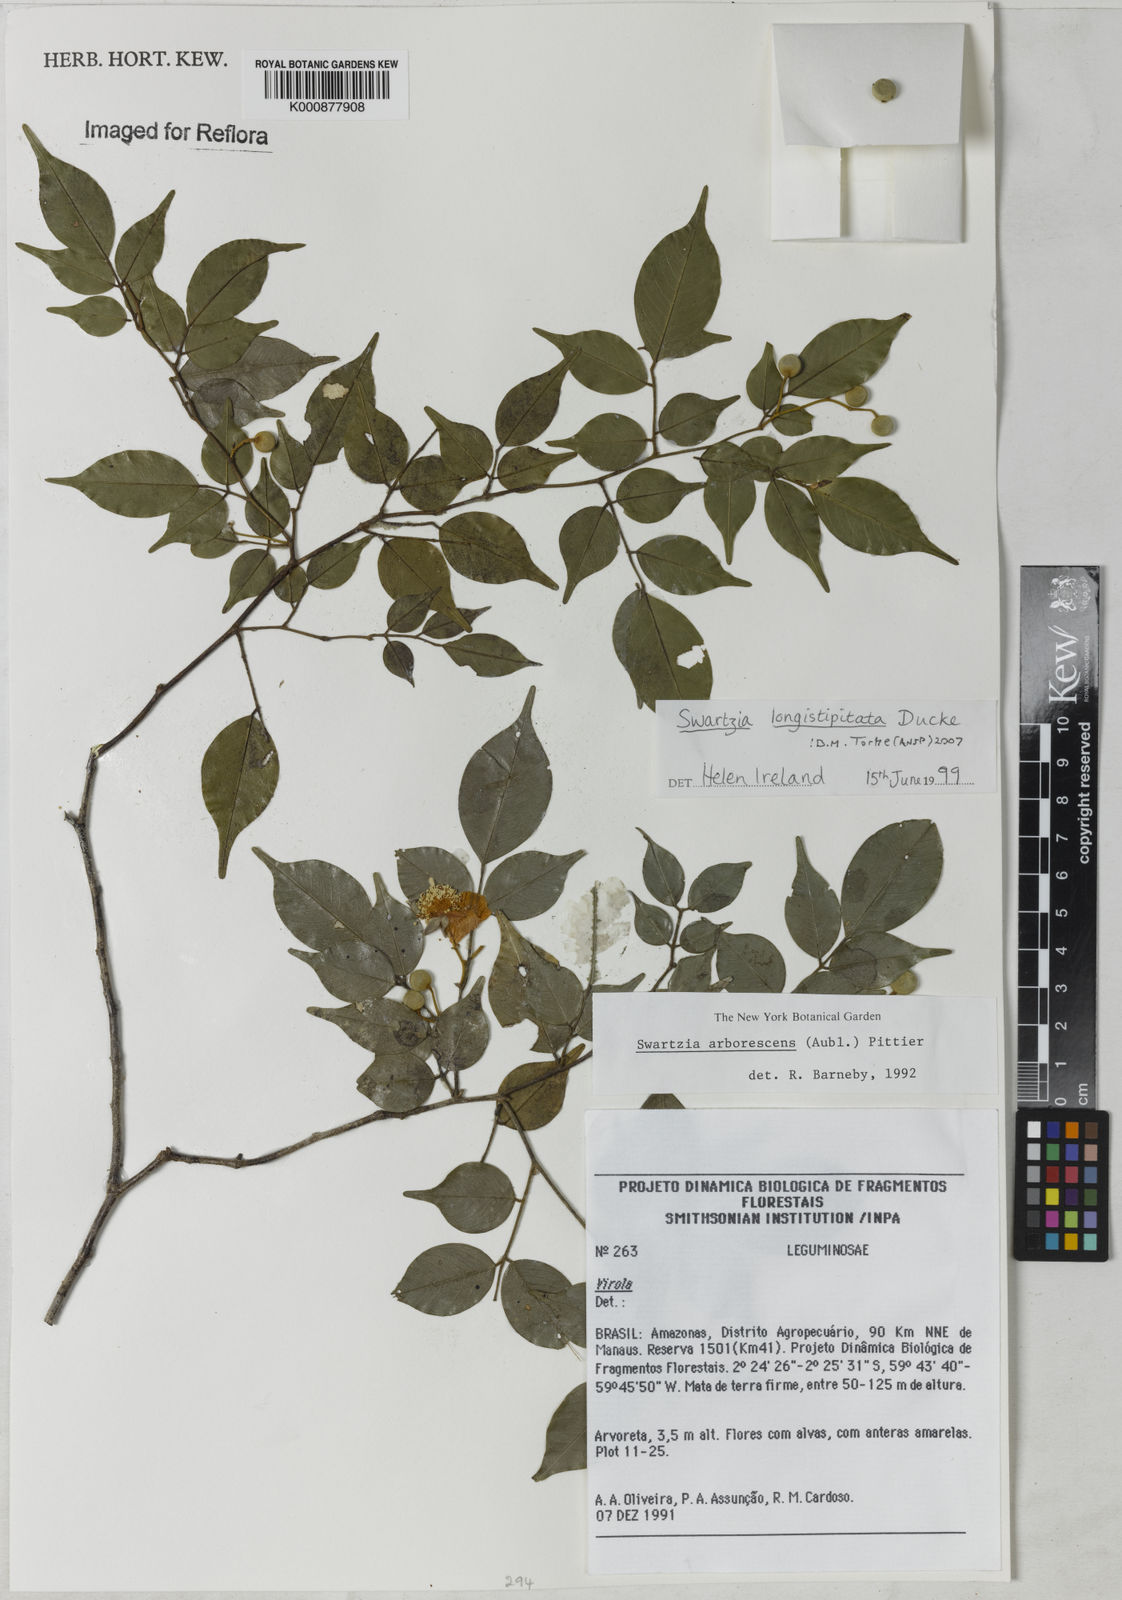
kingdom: Plantae
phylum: Tracheophyta
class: Magnoliopsida
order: Fabales
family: Fabaceae
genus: Swartzia
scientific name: Swartzia longistipitata
